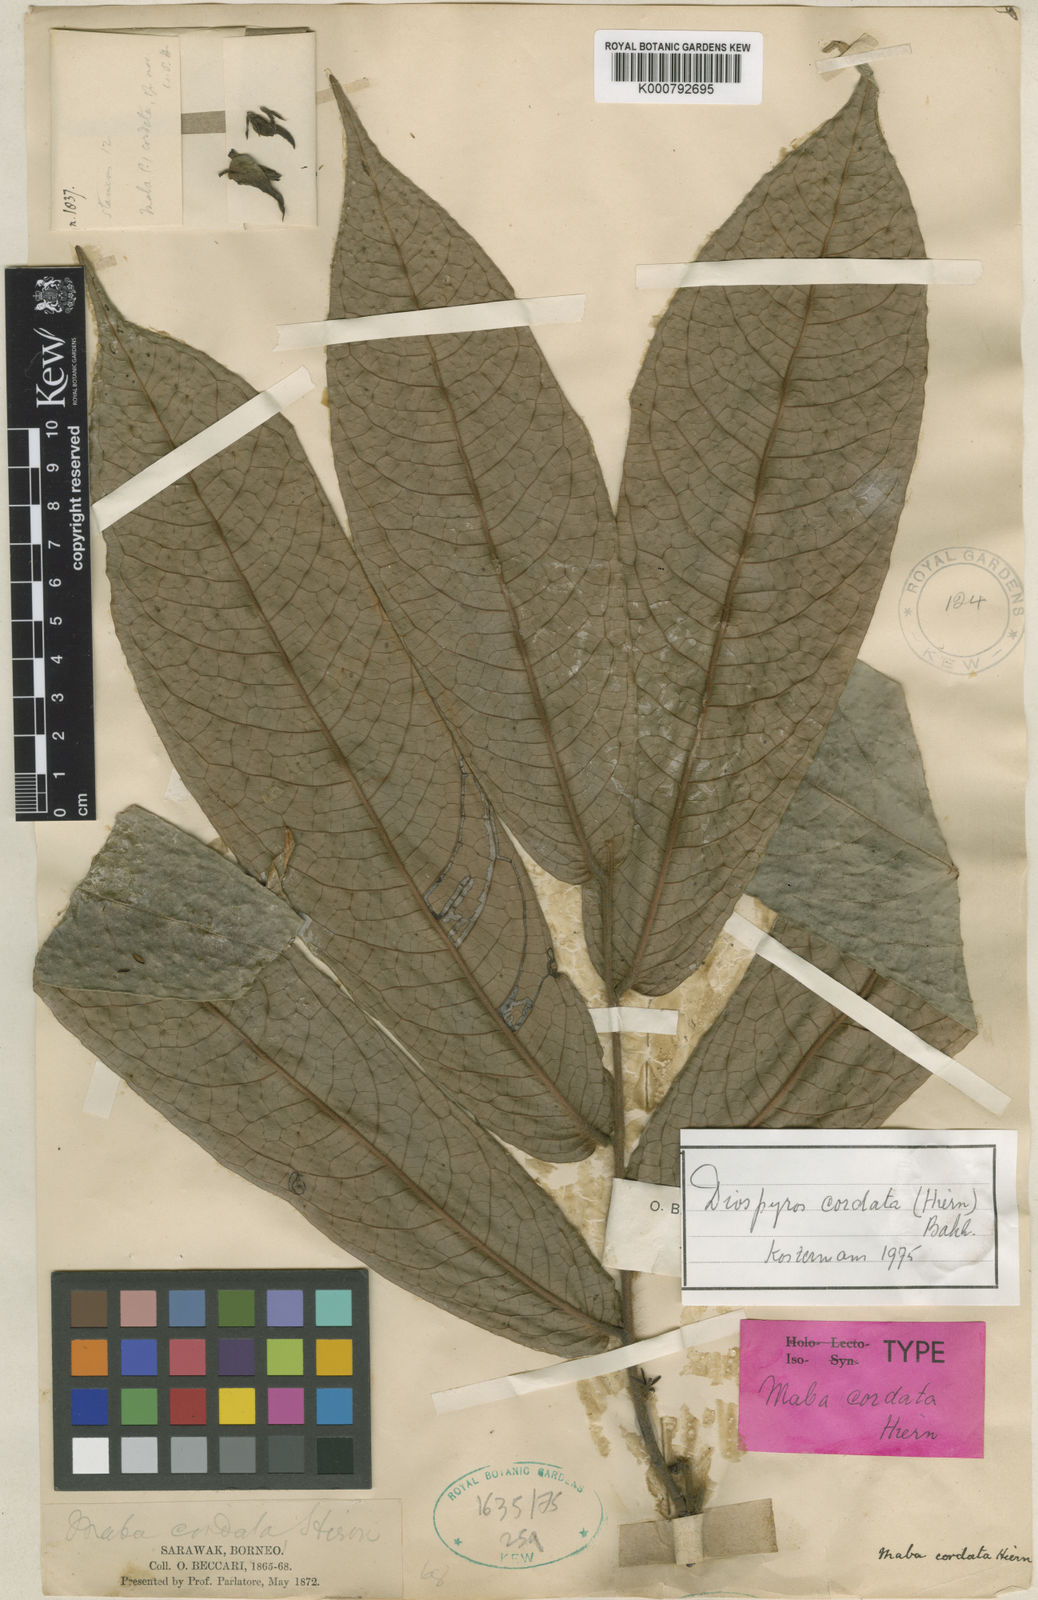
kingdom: Plantae
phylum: Tracheophyta
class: Magnoliopsida
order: Ericales
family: Ebenaceae
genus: Diospyros
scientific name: Diospyros cordata
